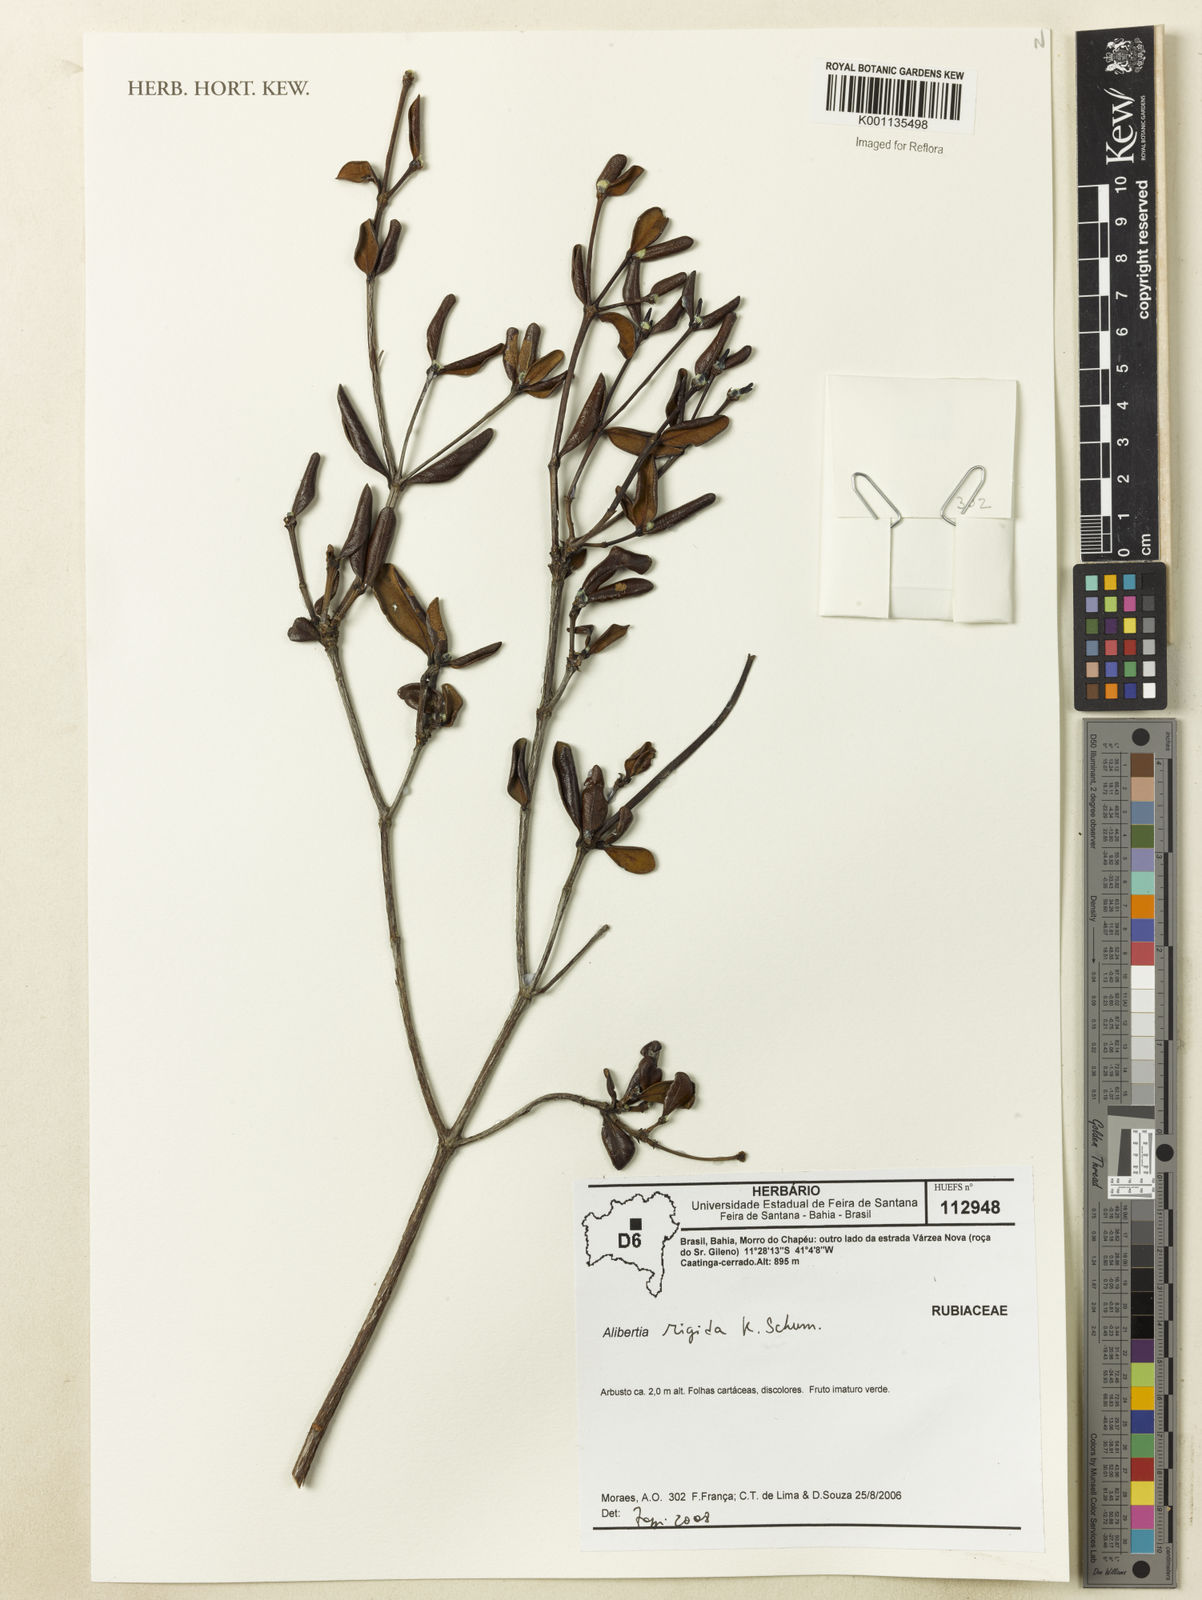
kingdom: Plantae
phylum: Tracheophyta
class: Magnoliopsida
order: Gentianales
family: Rubiaceae
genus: Cordiera
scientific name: Cordiera rigida
